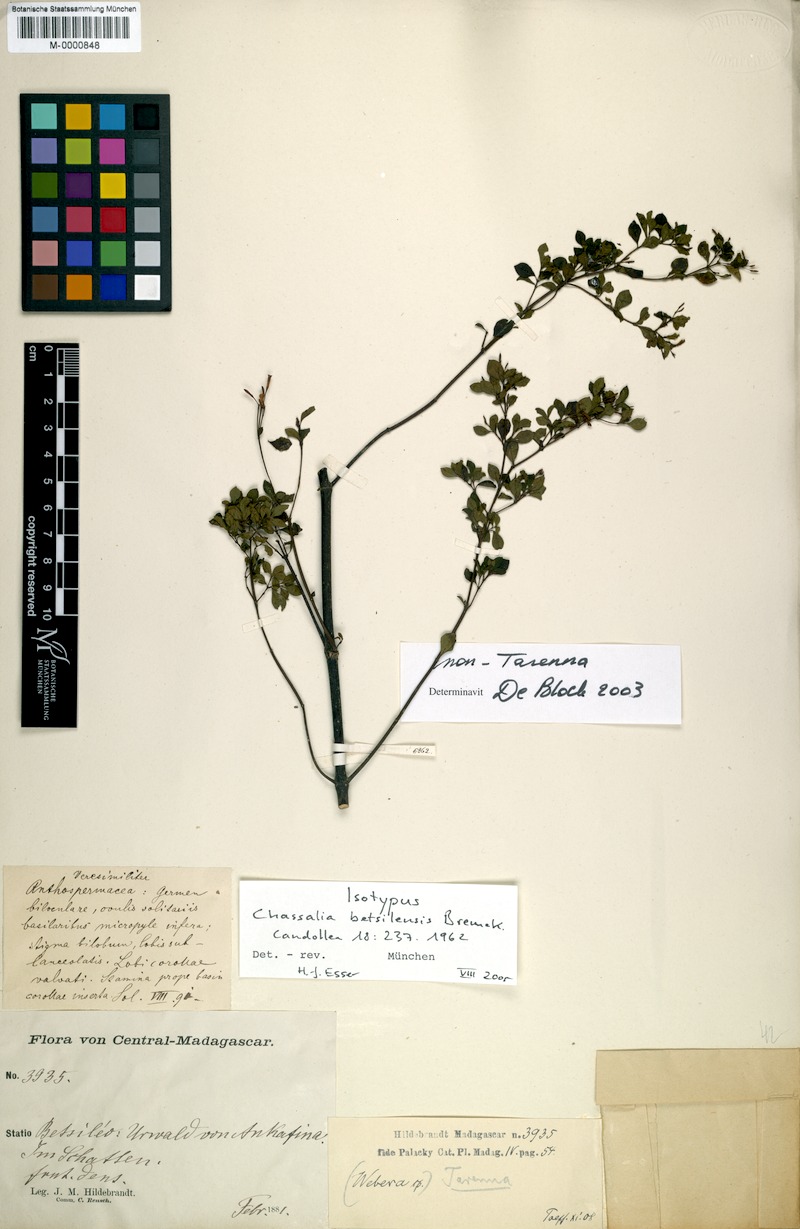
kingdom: Plantae
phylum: Tracheophyta
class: Magnoliopsida
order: Gentianales
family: Rubiaceae
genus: Chassalia
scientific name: Chassalia betsilensis
